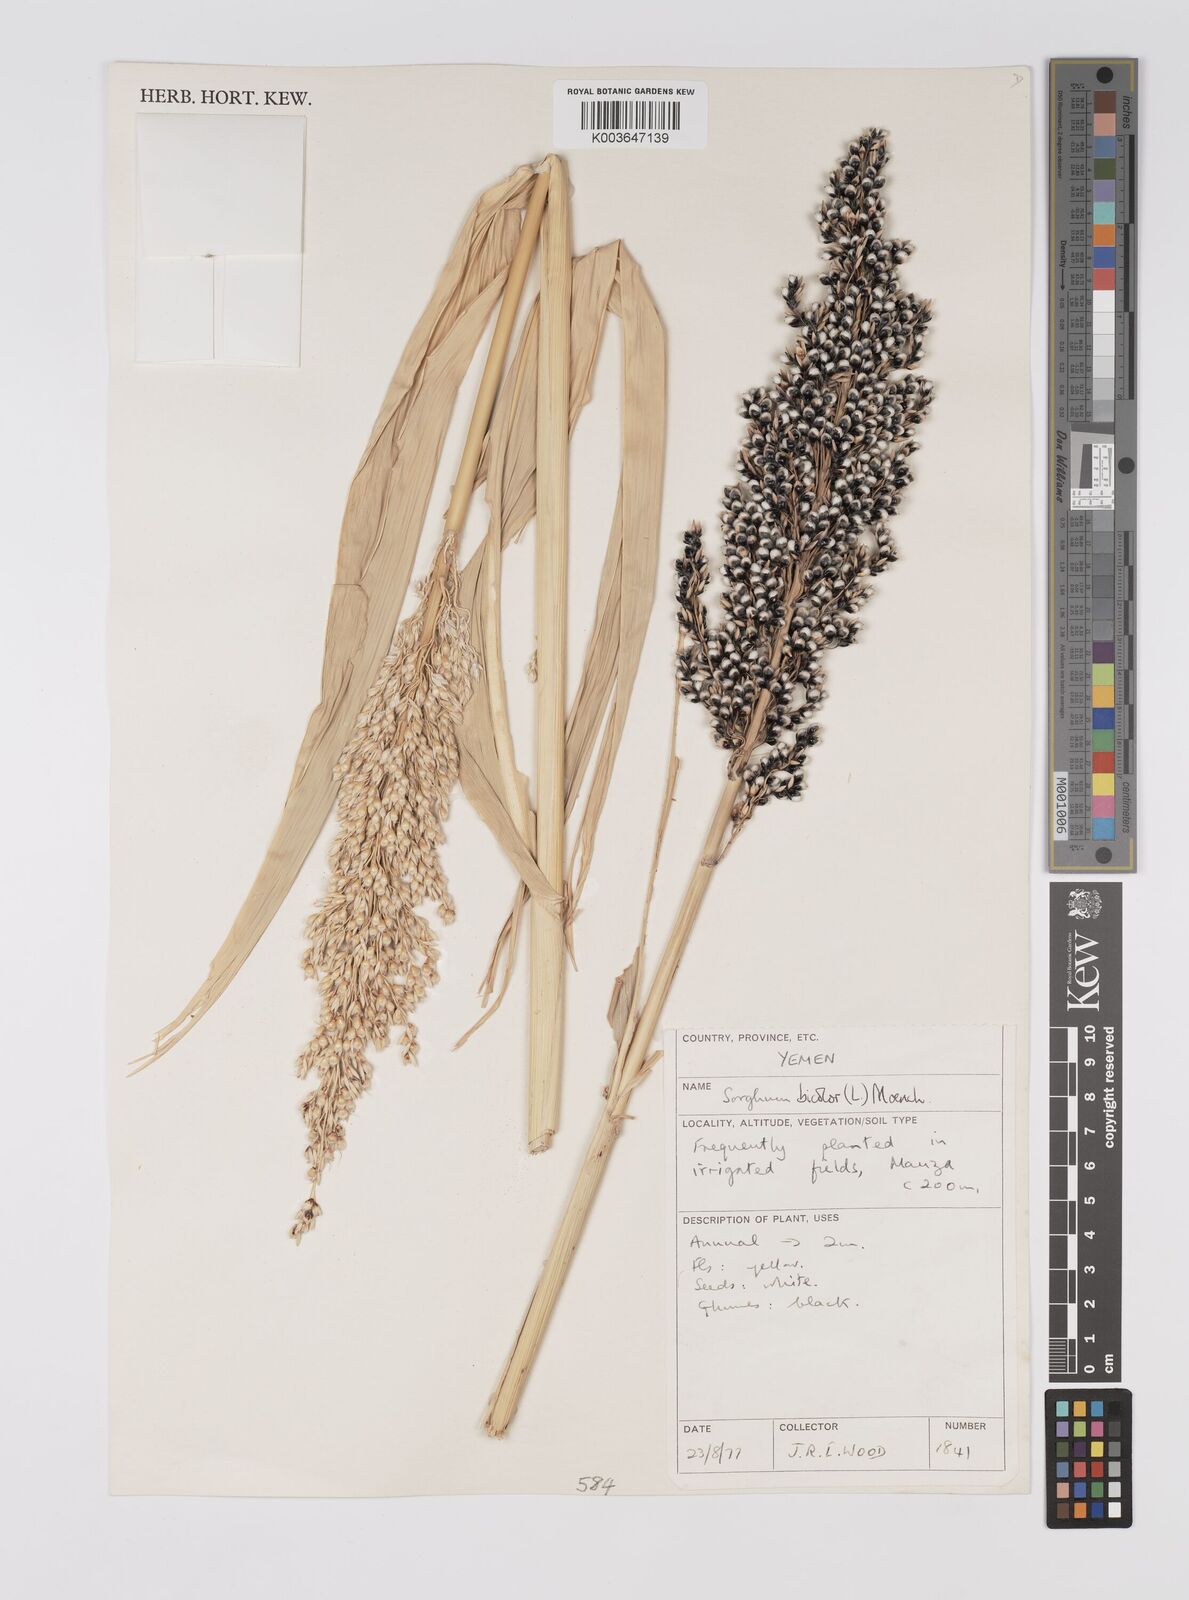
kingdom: Plantae
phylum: Tracheophyta
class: Liliopsida
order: Poales
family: Poaceae
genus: Sorghum
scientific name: Sorghum bicolor
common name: Sorghum
